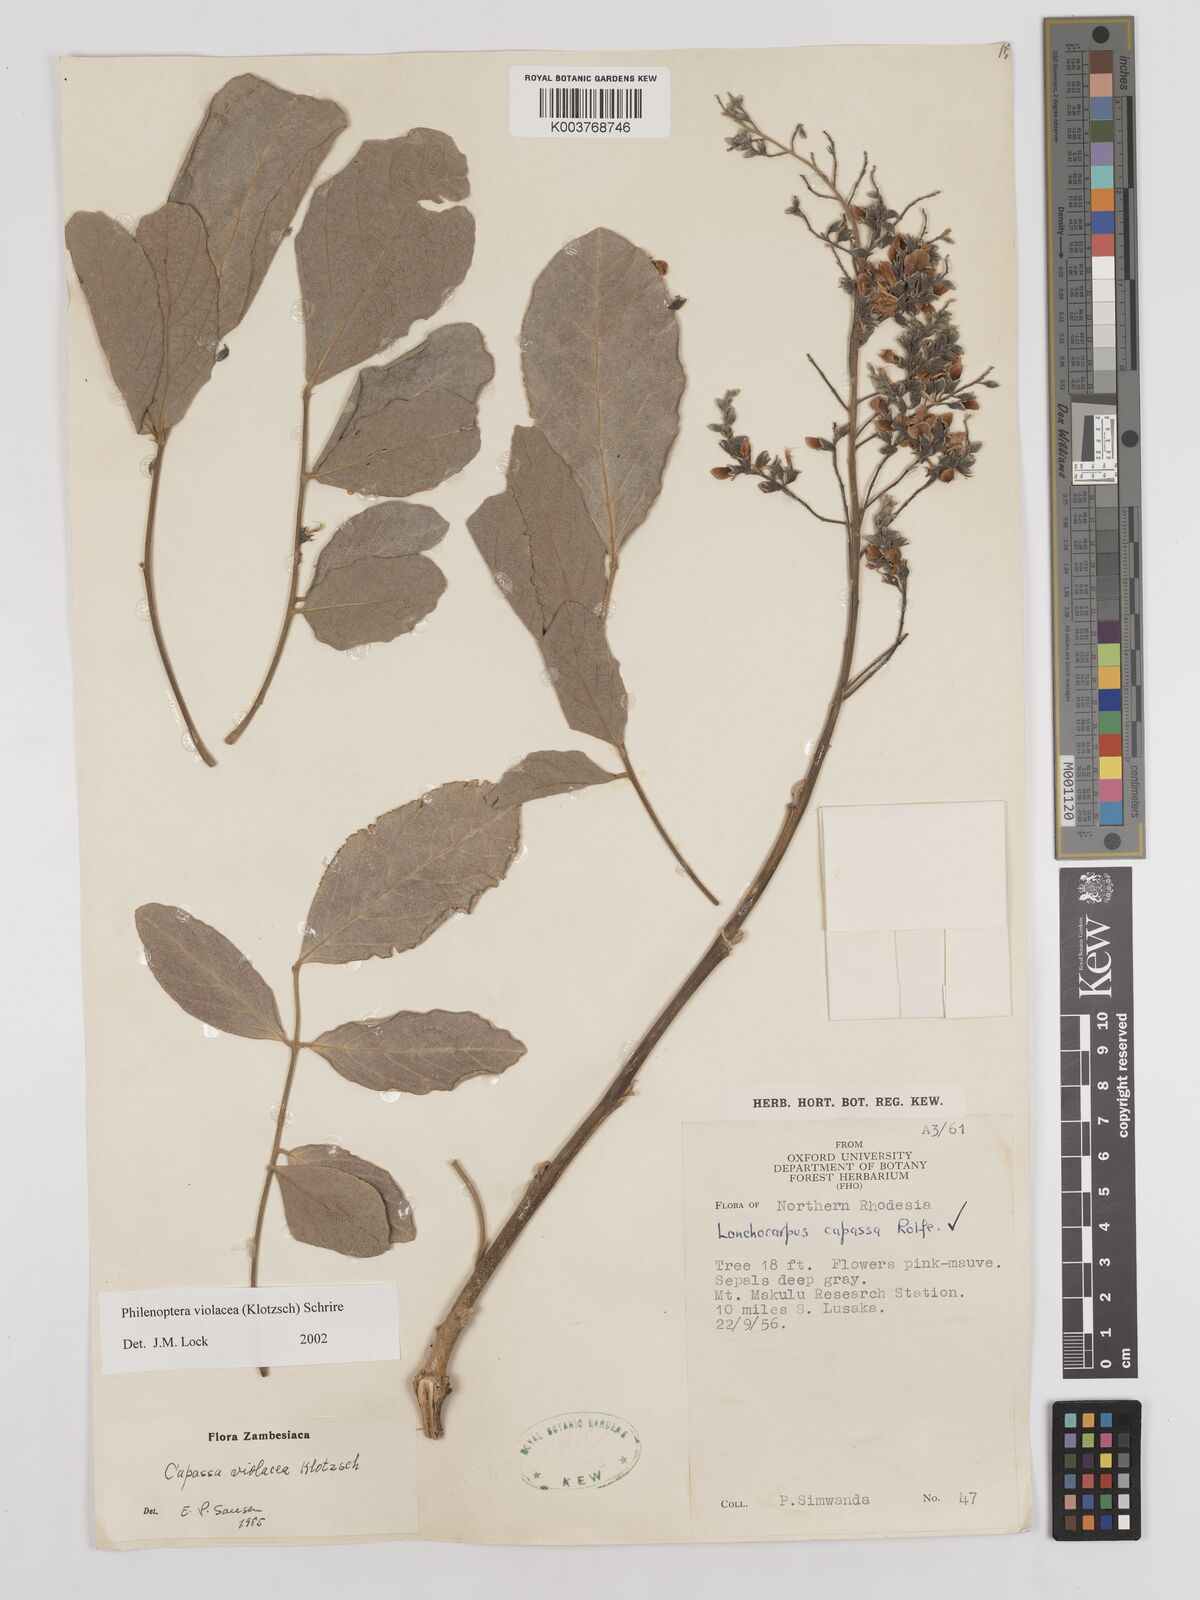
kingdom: Plantae
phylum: Tracheophyta
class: Magnoliopsida
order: Fabales
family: Fabaceae
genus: Philenoptera
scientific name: Philenoptera violacea
